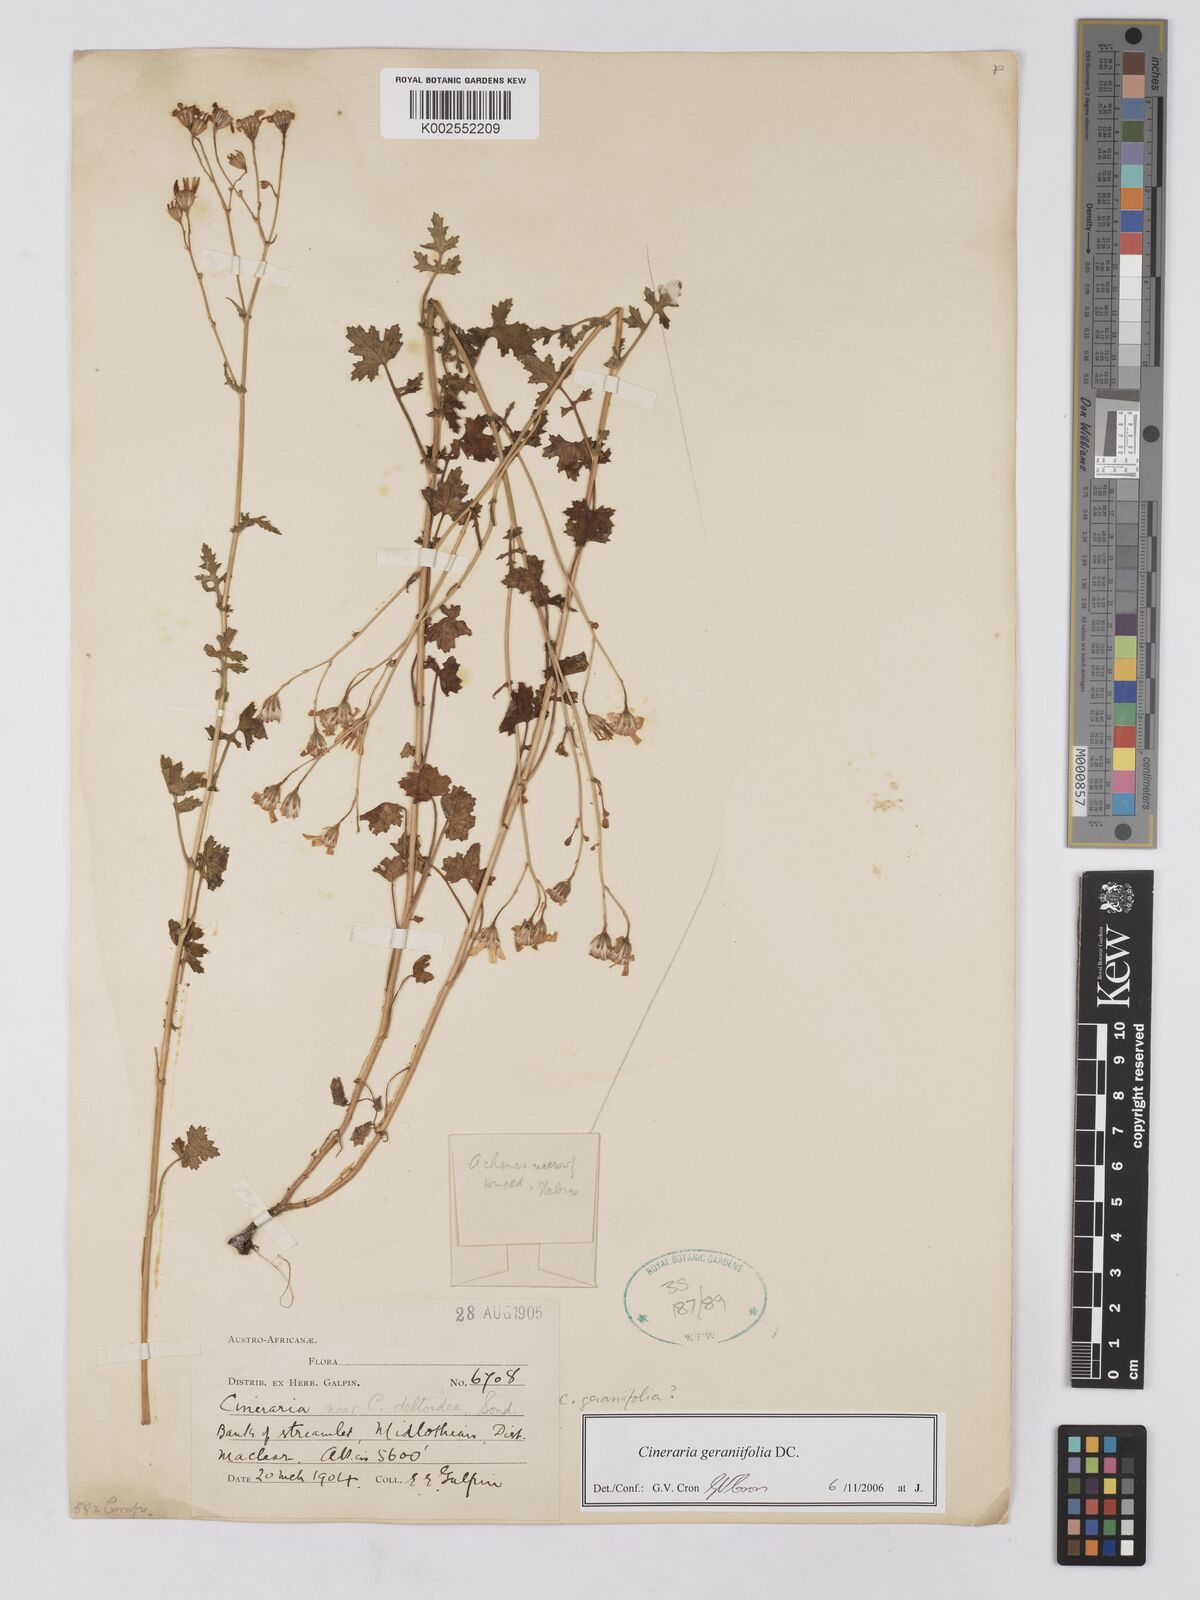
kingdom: Plantae
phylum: Tracheophyta
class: Magnoliopsida
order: Asterales
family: Asteraceae
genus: Cineraria
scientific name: Cineraria geraniifolia
